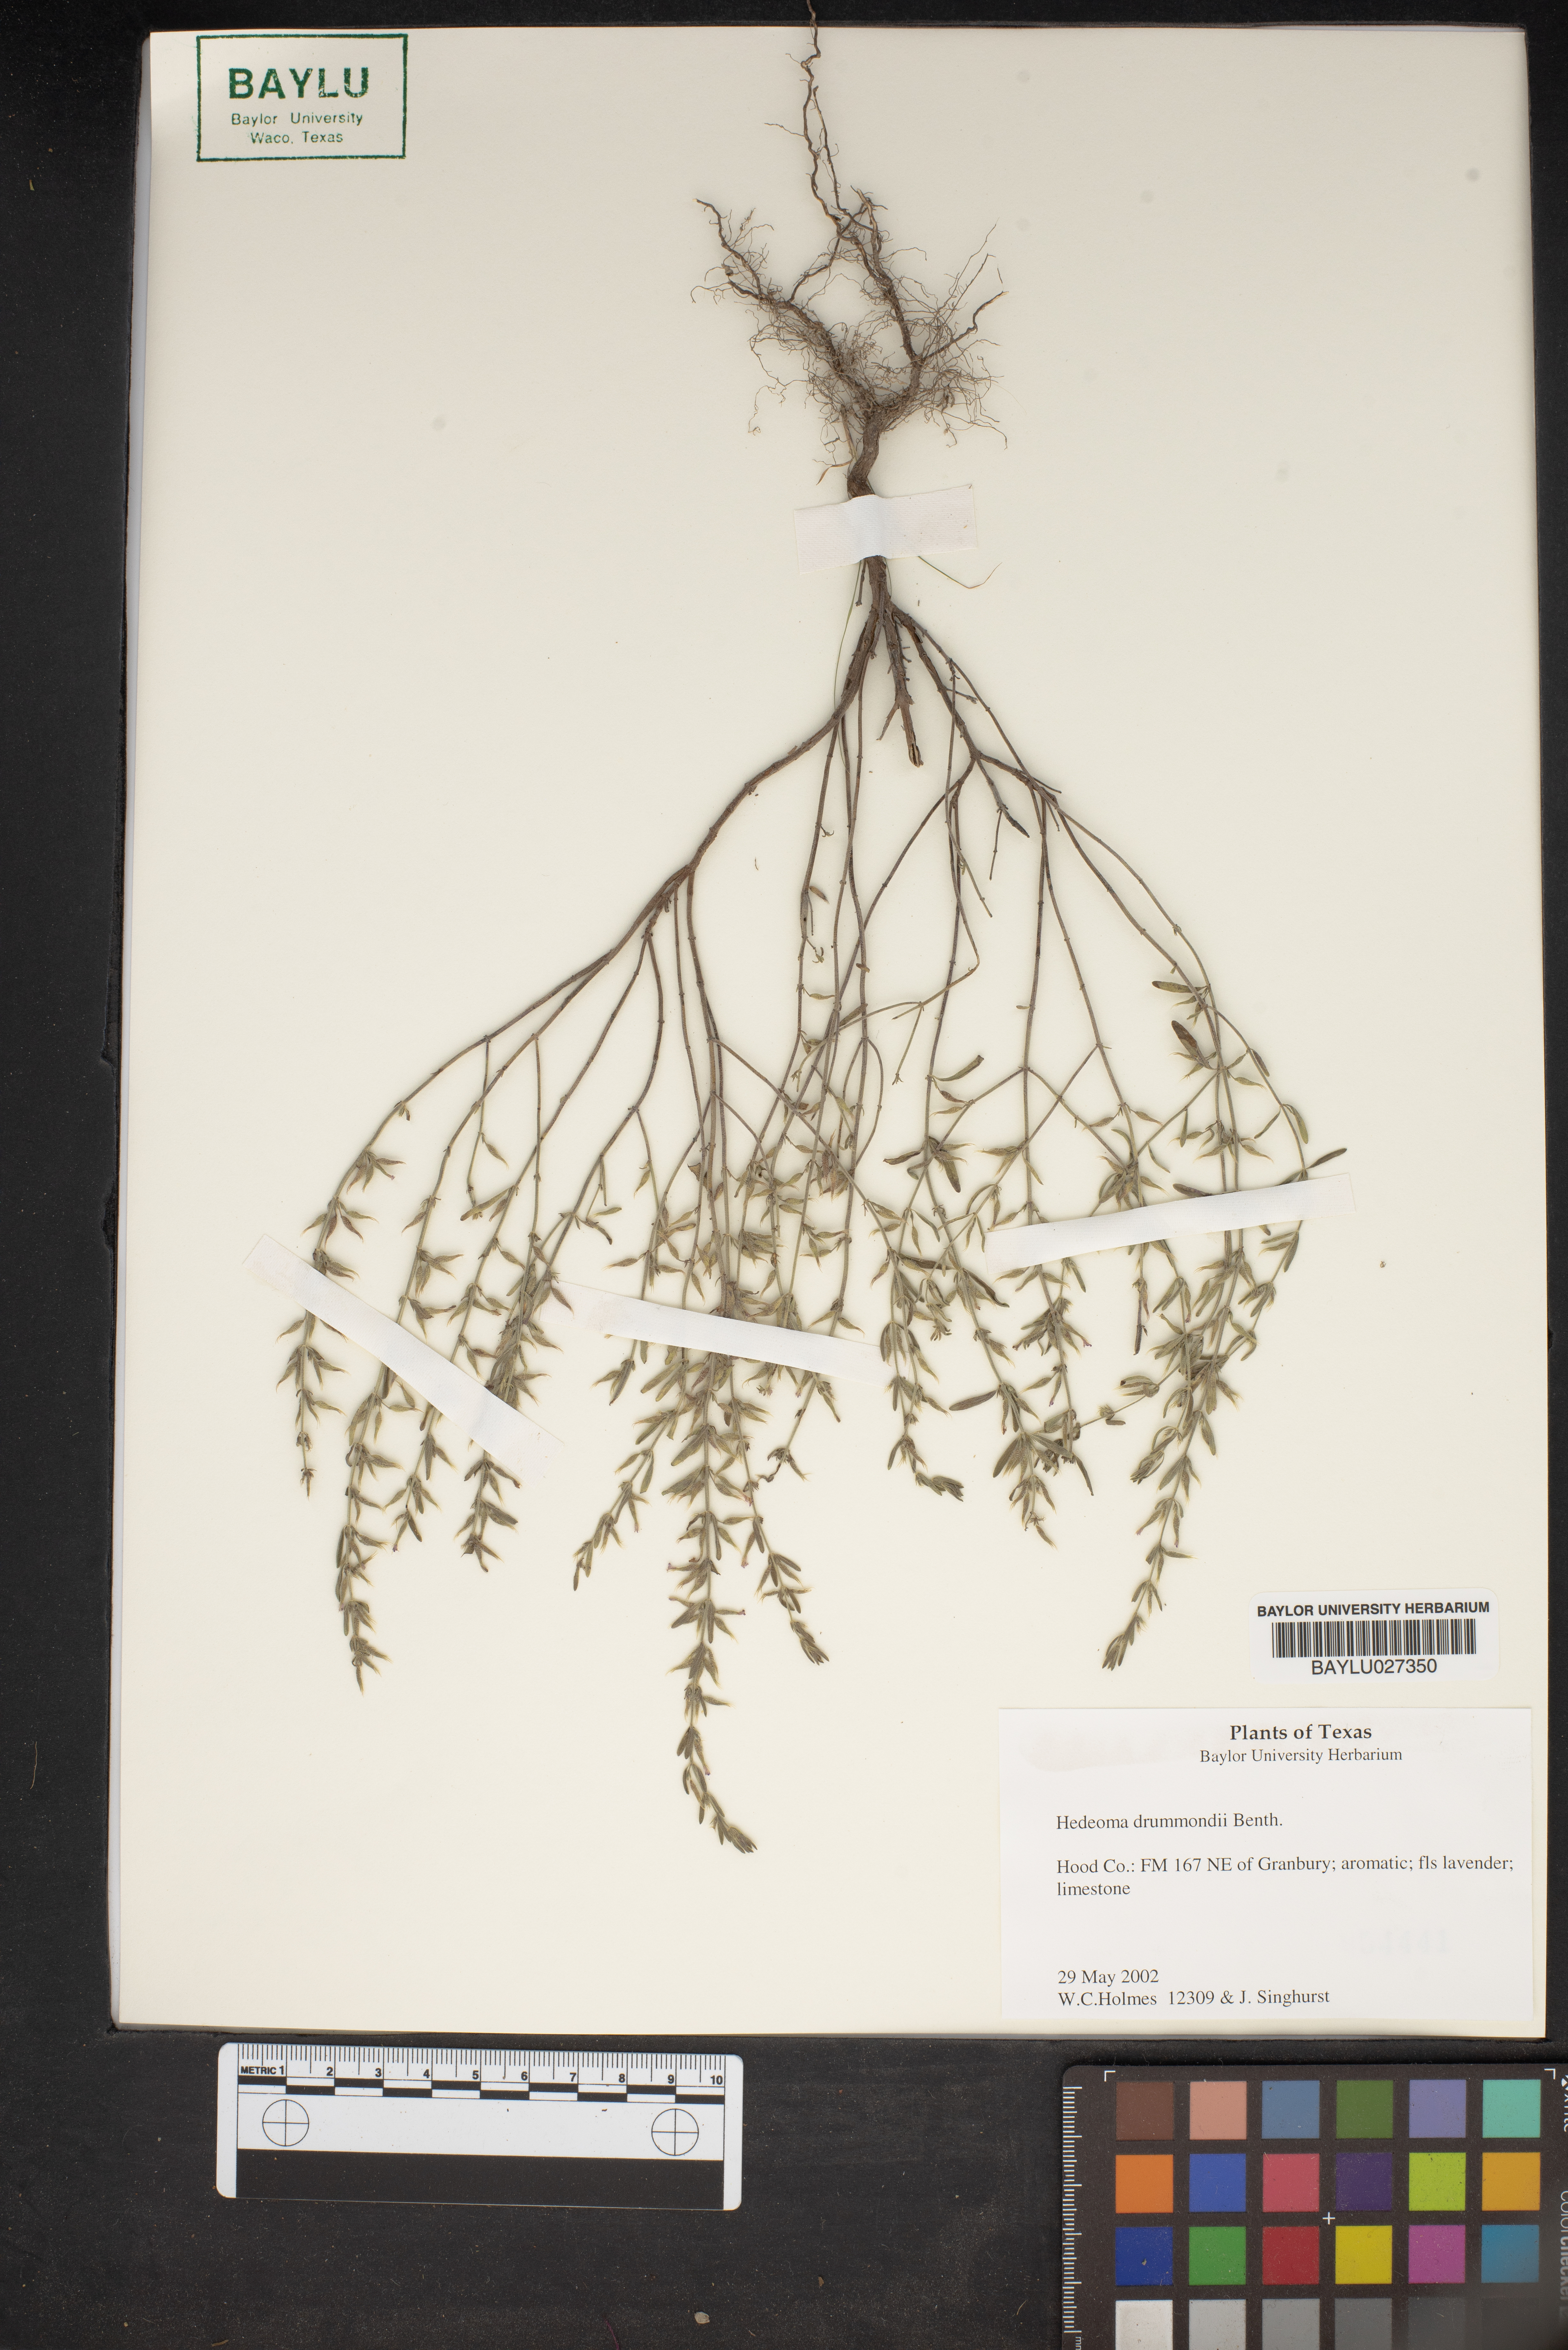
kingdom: Plantae
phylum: Tracheophyta
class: Magnoliopsida
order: Lamiales
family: Lamiaceae
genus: Hedeoma
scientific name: Hedeoma drummondii
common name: New mexico pennyroyal
